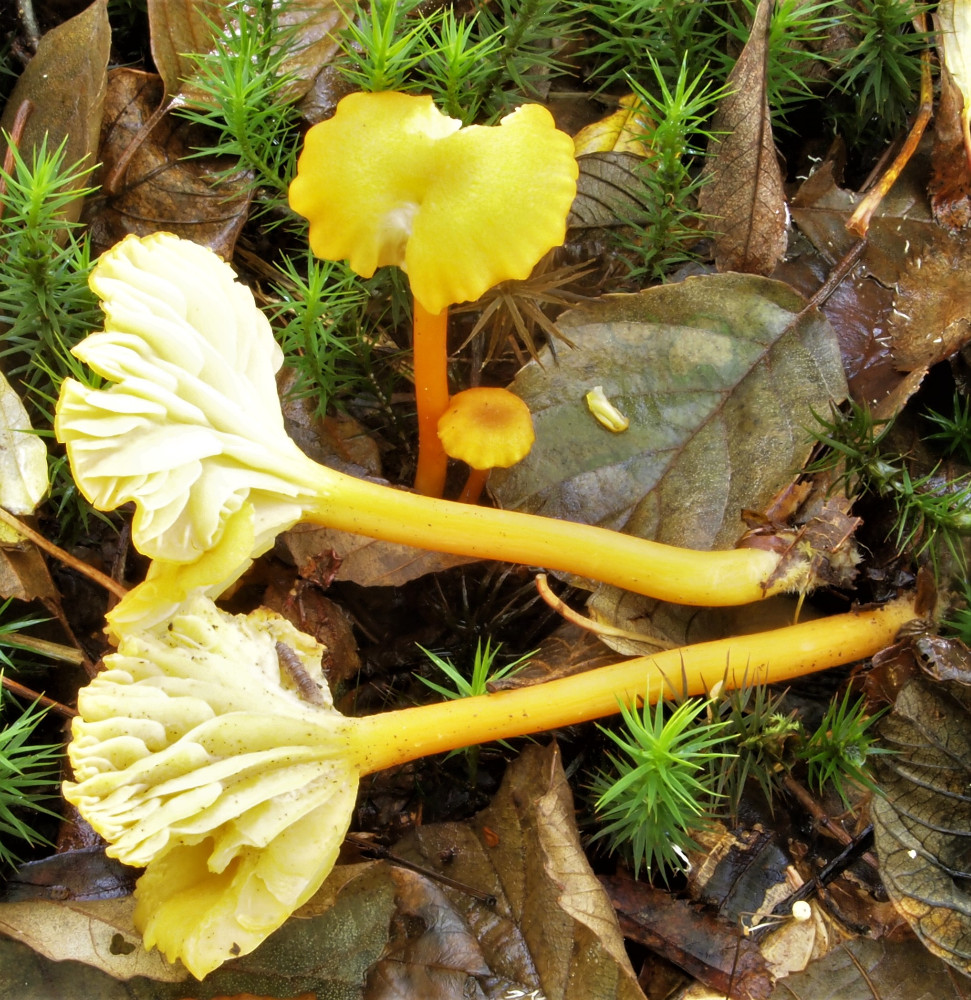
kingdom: Fungi
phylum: Basidiomycota
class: Agaricomycetes
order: Agaricales
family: Hygrophoraceae
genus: Hygrocybe
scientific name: Hygrocybe cantharellus
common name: kantarel-vokshat
